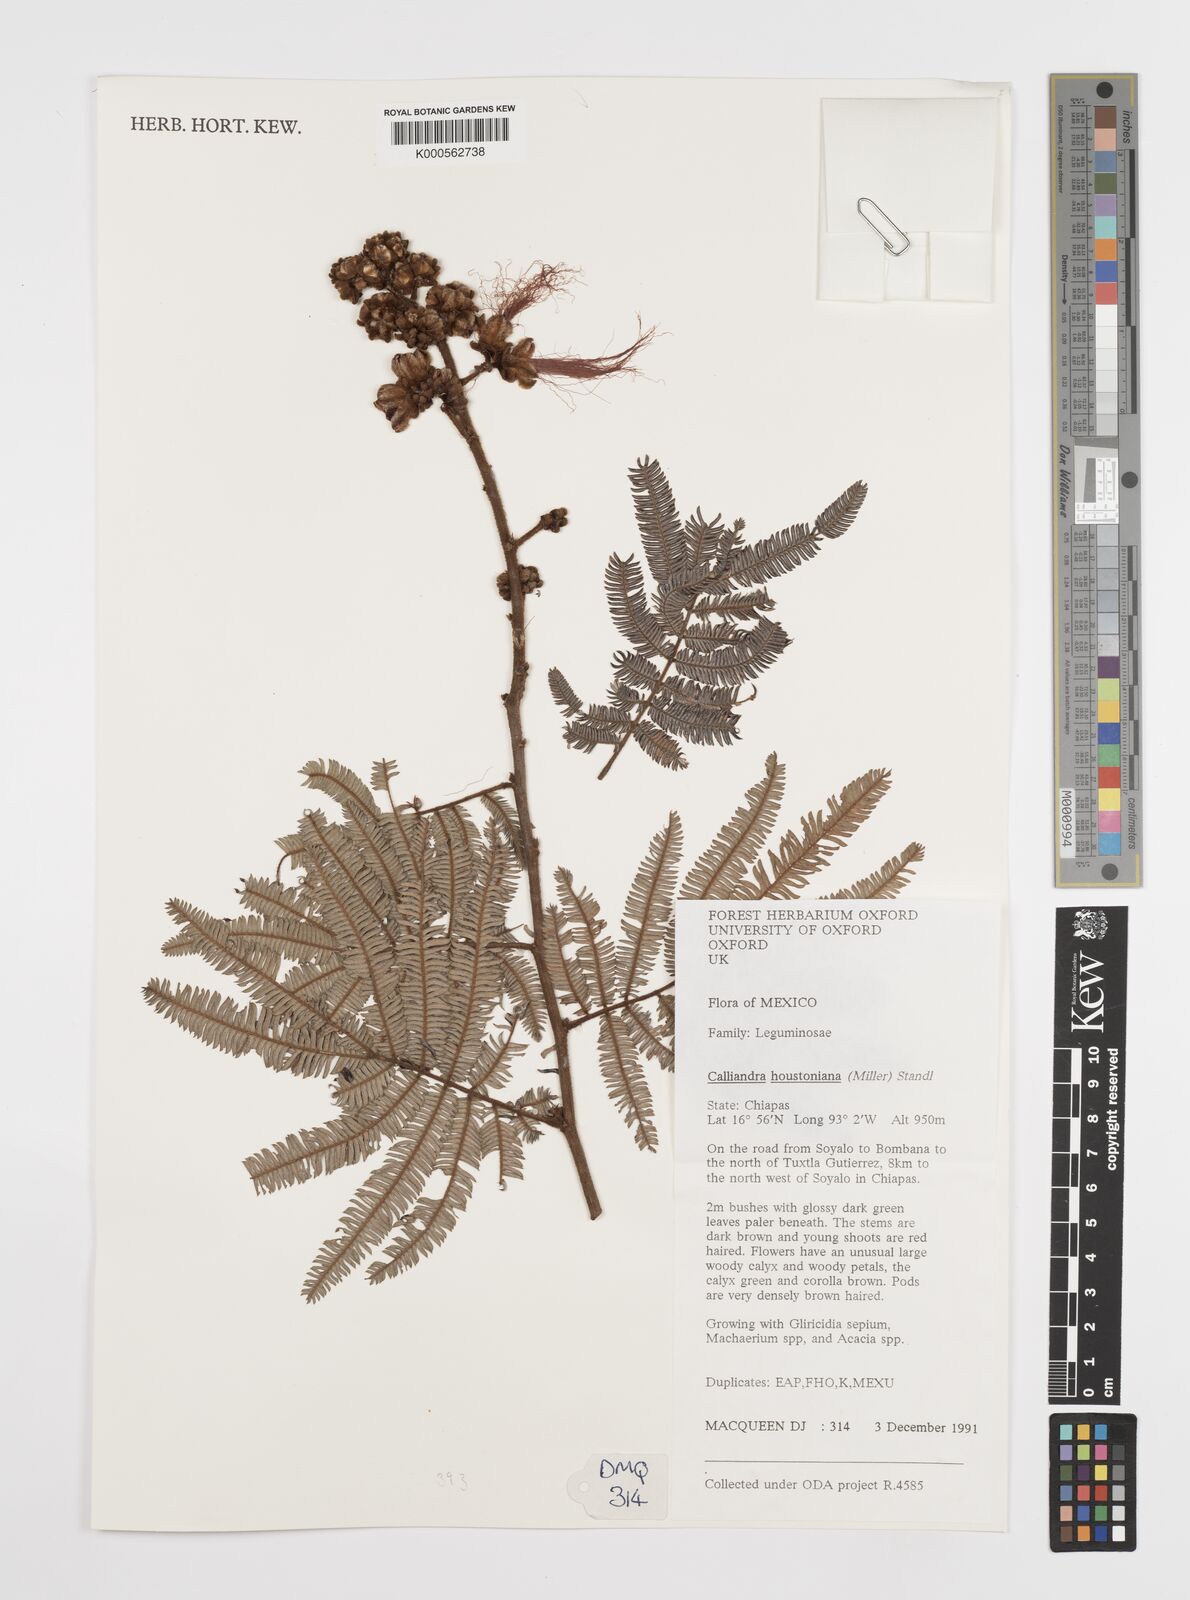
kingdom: Plantae
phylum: Tracheophyta
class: Magnoliopsida
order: Fabales
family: Fabaceae
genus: Calliandra
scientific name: Calliandra houstoniana
